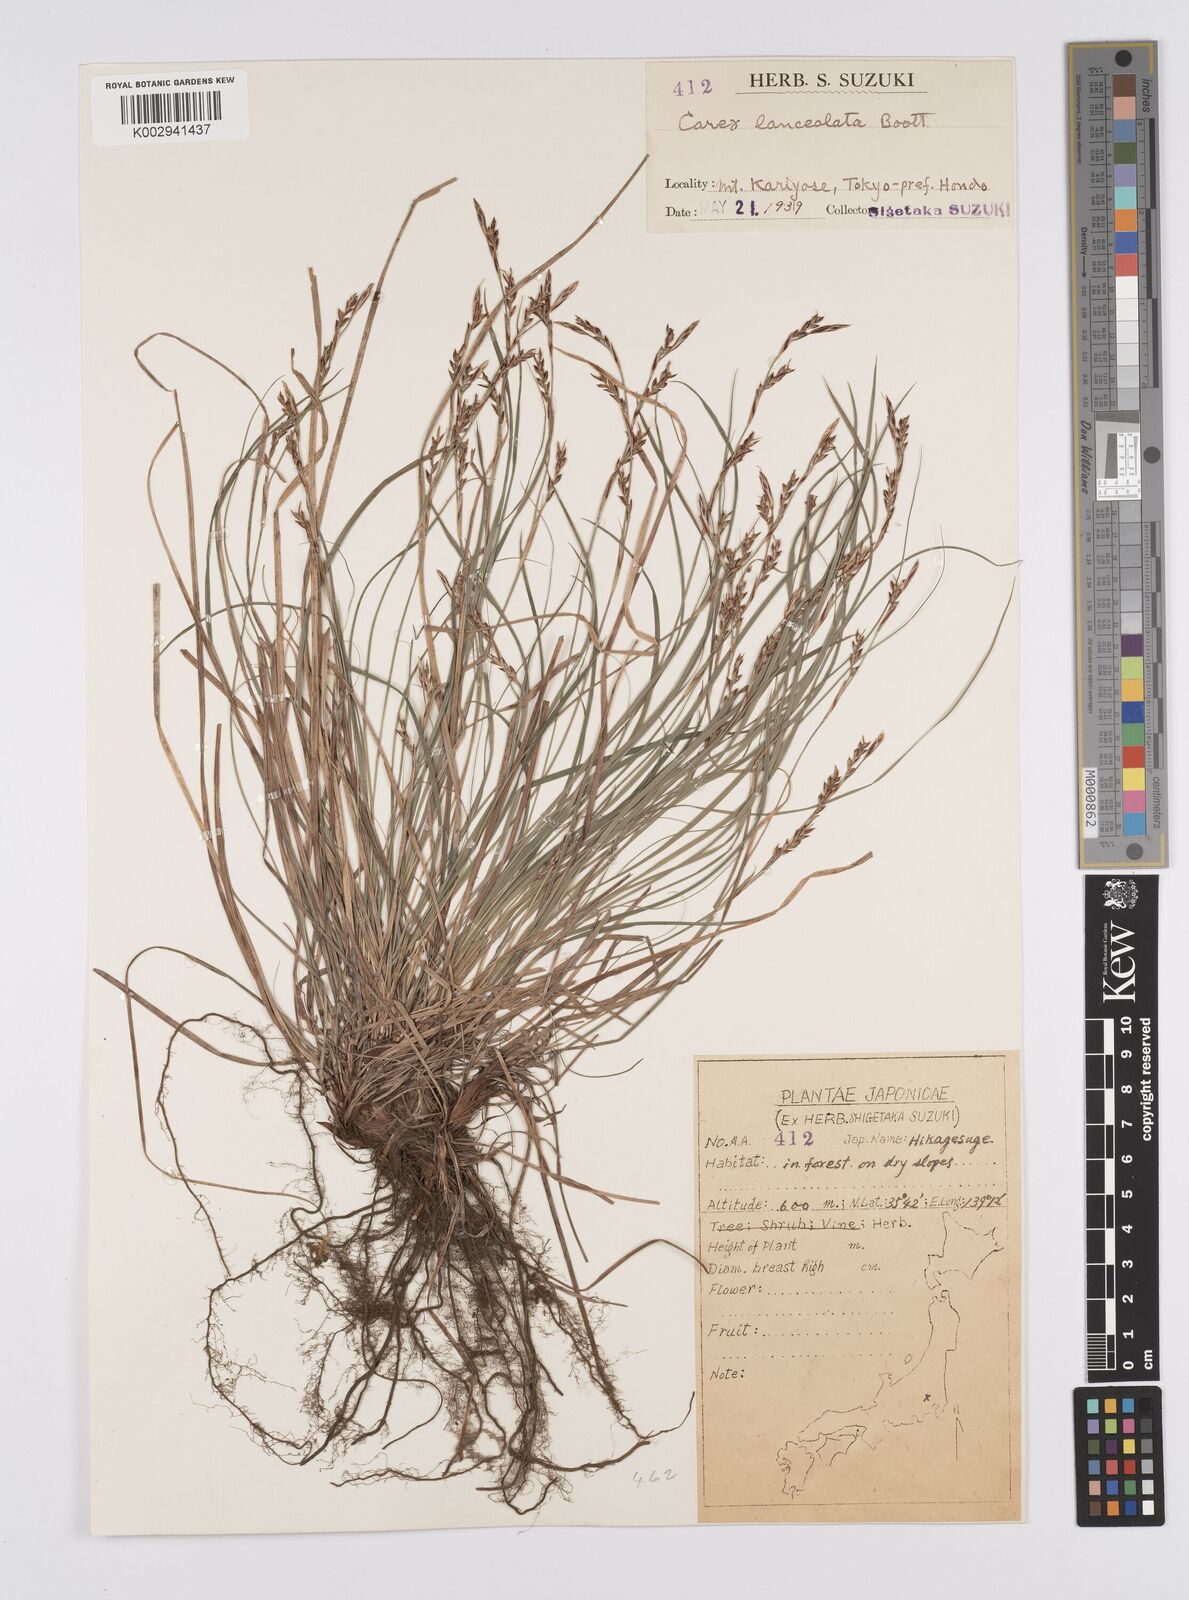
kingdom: Plantae
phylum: Tracheophyta
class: Liliopsida
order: Poales
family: Cyperaceae
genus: Carex
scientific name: Carex lanceolata
